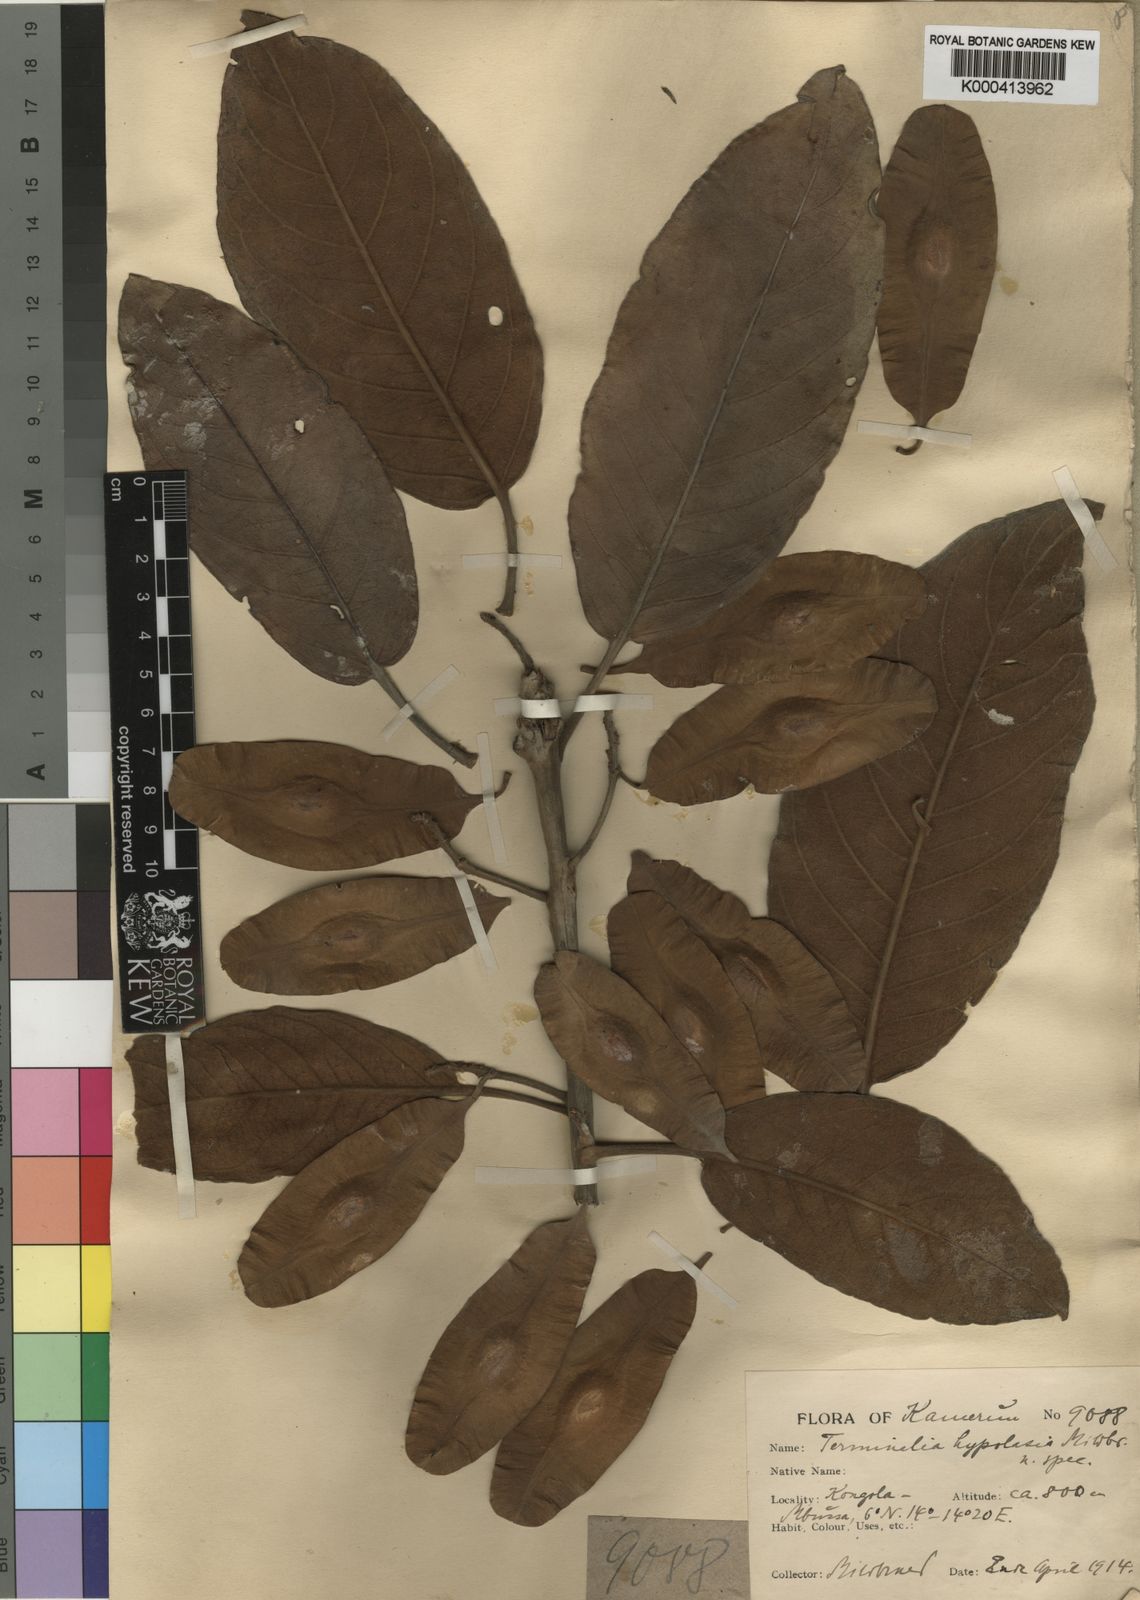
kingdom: Plantae
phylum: Tracheophyta
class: Magnoliopsida
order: Myrtales
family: Combretaceae
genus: Terminalia
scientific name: Terminalia
